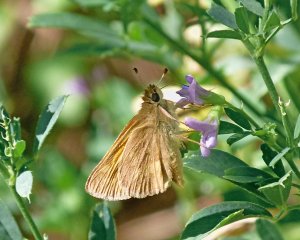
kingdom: Animalia
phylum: Arthropoda
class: Insecta
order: Lepidoptera
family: Hesperiidae
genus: Ochlodes
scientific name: Ochlodes sylvanoides
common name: Woodland Skipper
